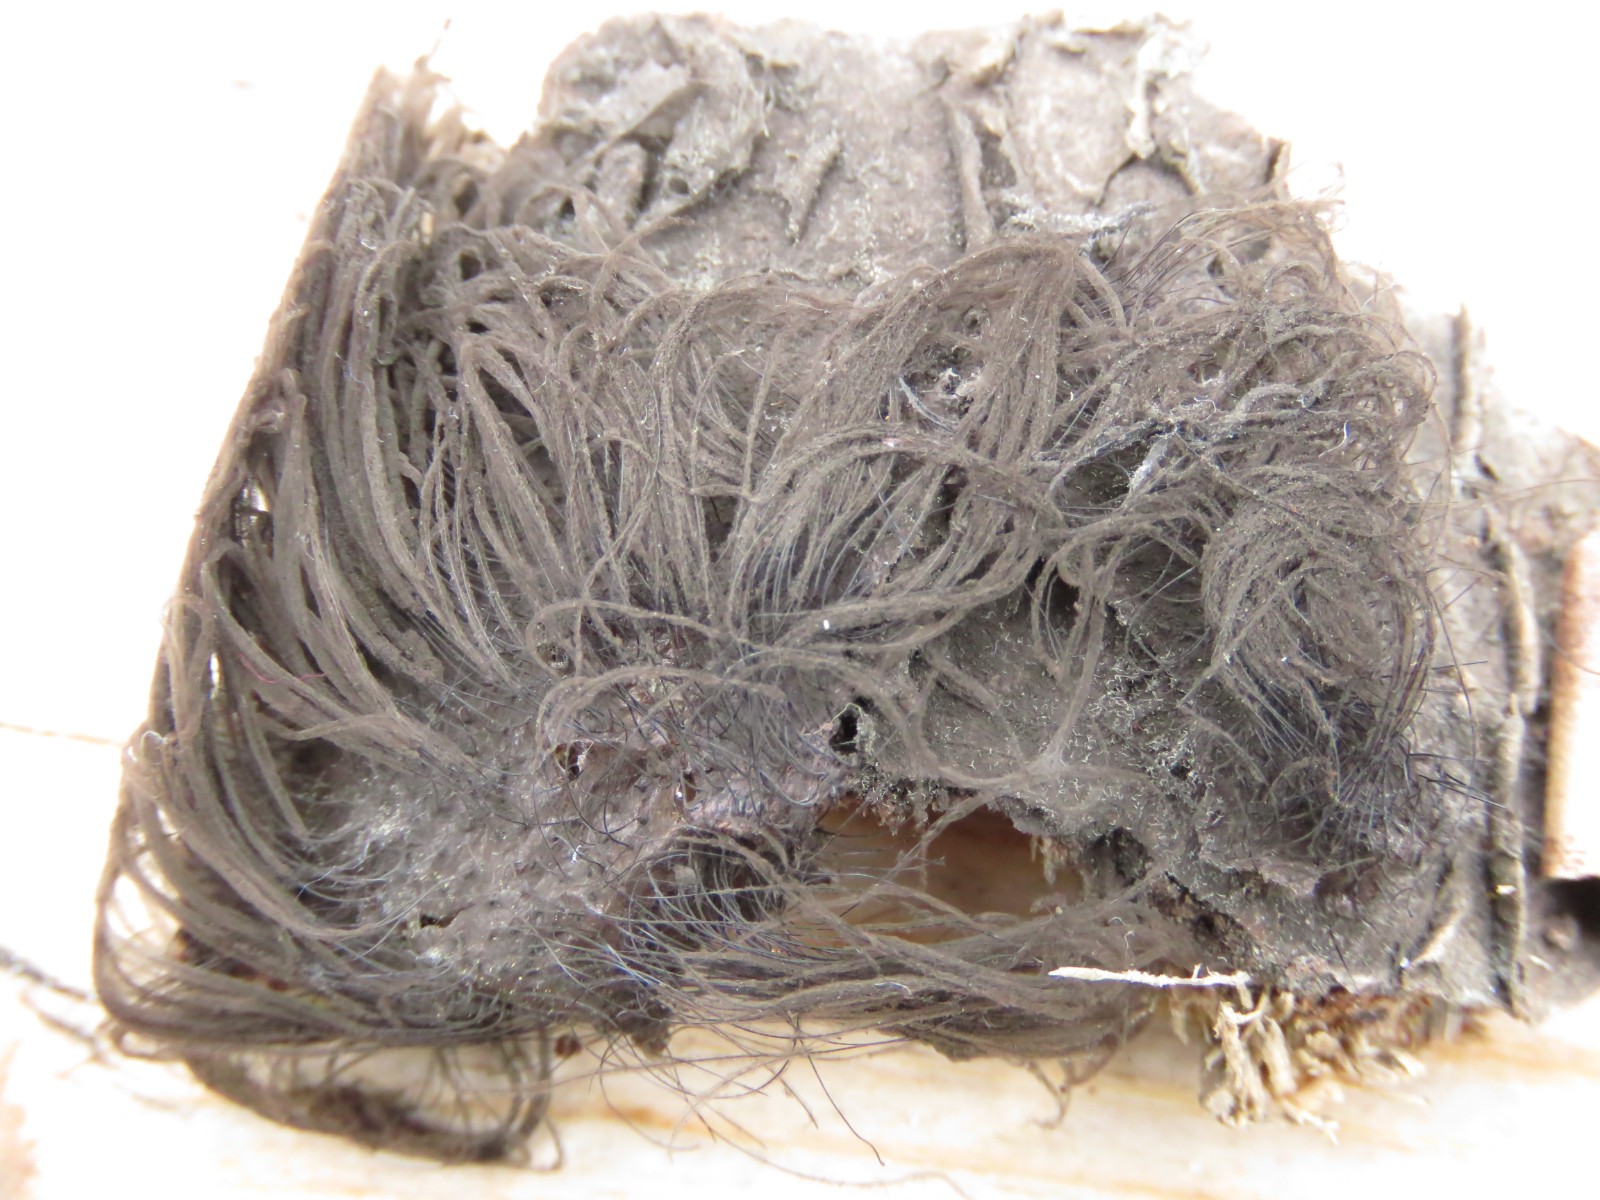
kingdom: Protozoa
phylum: Mycetozoa
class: Myxomycetes
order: Stemonitidales
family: Stemonitidaceae
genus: Stemonitis
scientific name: Stemonitis fusca
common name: sodbrun støvkølle
